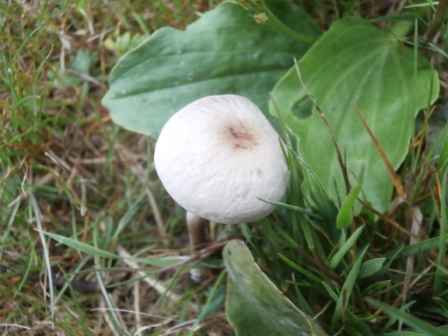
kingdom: Fungi
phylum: Basidiomycota
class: Agaricomycetes
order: Agaricales
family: Bolbitiaceae
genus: Panaeolus
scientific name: Panaeolus cinctulus
